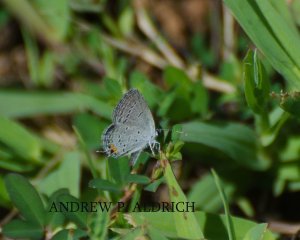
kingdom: Animalia
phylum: Arthropoda
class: Insecta
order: Lepidoptera
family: Lycaenidae
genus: Elkalyce
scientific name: Elkalyce comyntas
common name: Eastern Tailed-Blue
